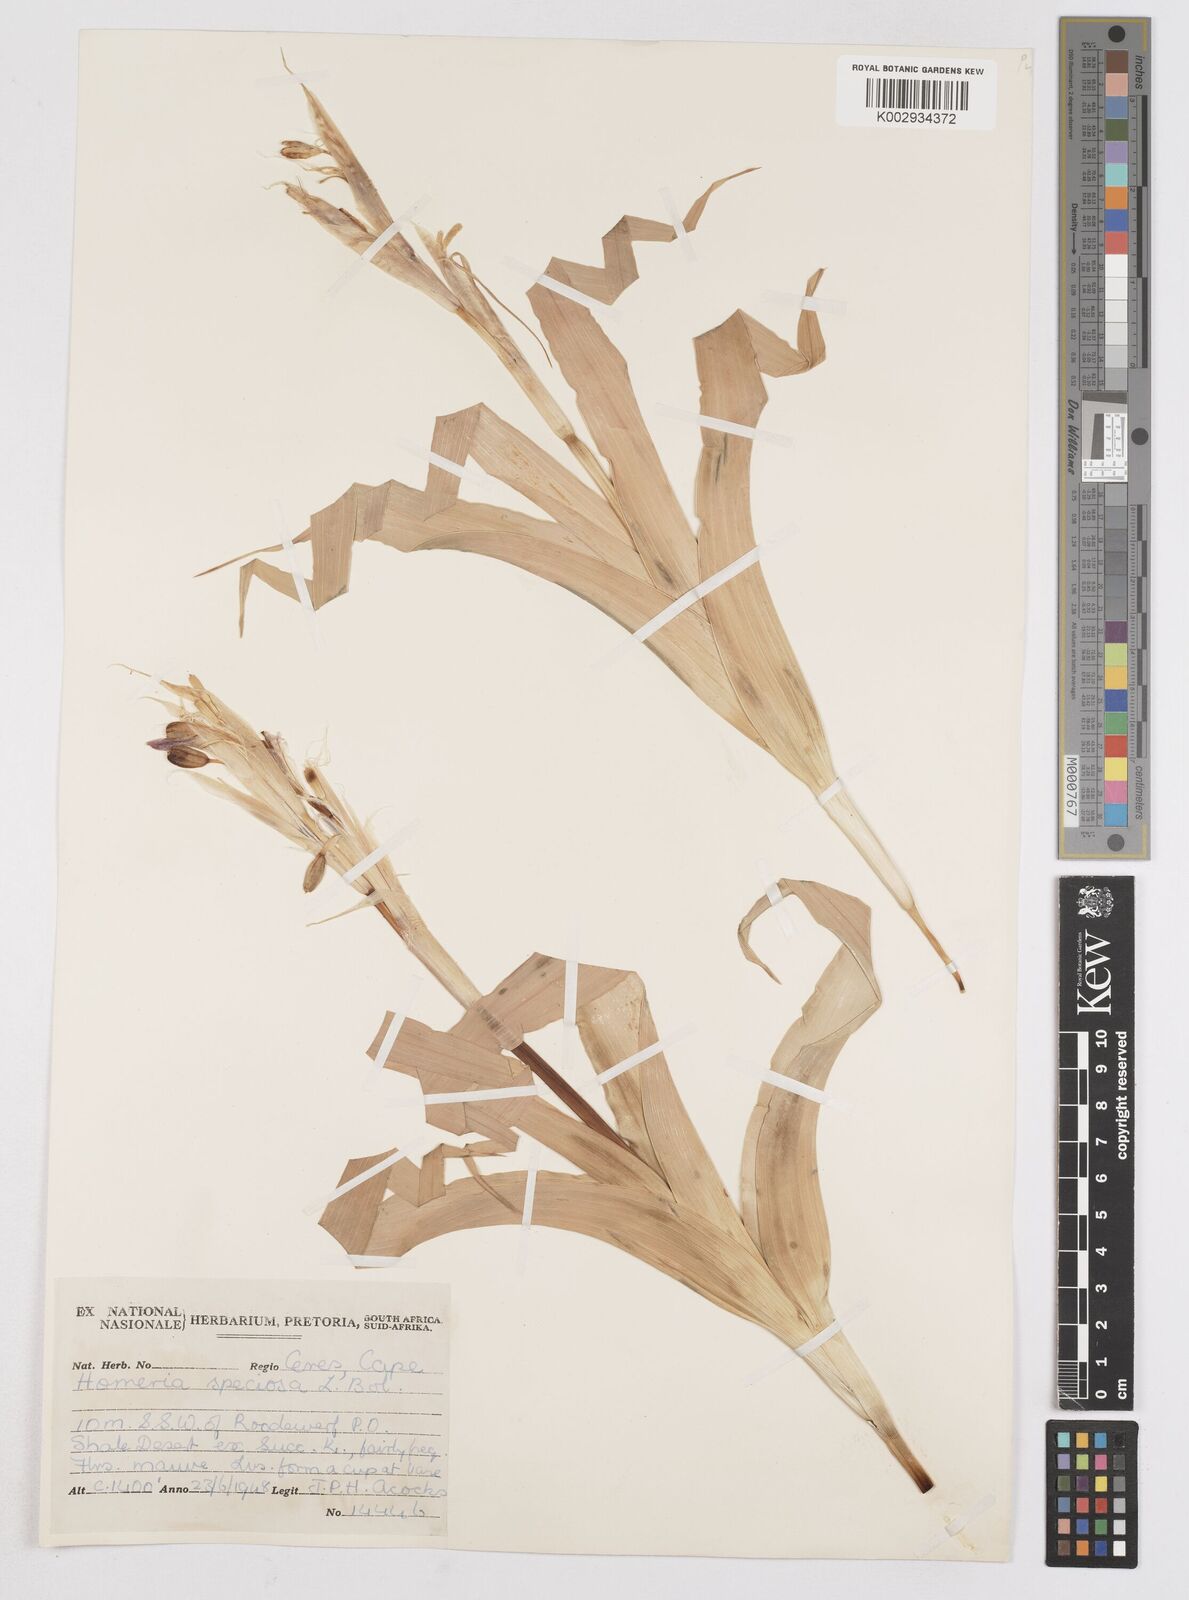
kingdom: Plantae
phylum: Tracheophyta
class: Liliopsida
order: Asparagales
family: Iridaceae
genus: Moraea
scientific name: Moraea speciosa
